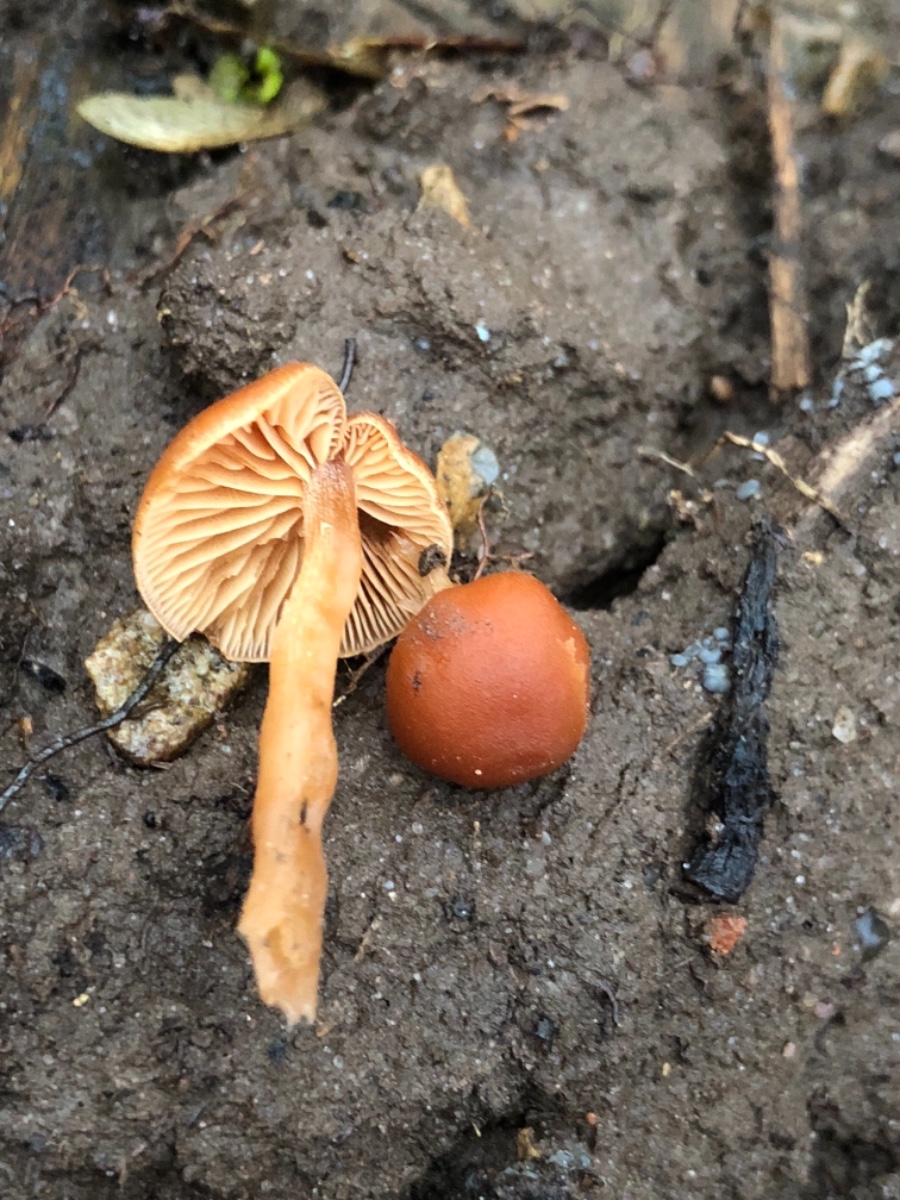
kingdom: Fungi
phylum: Basidiomycota
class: Agaricomycetes
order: Agaricales
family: Tubariaceae
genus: Tubaria
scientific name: Tubaria furfuracea
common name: kliddet fnughat
